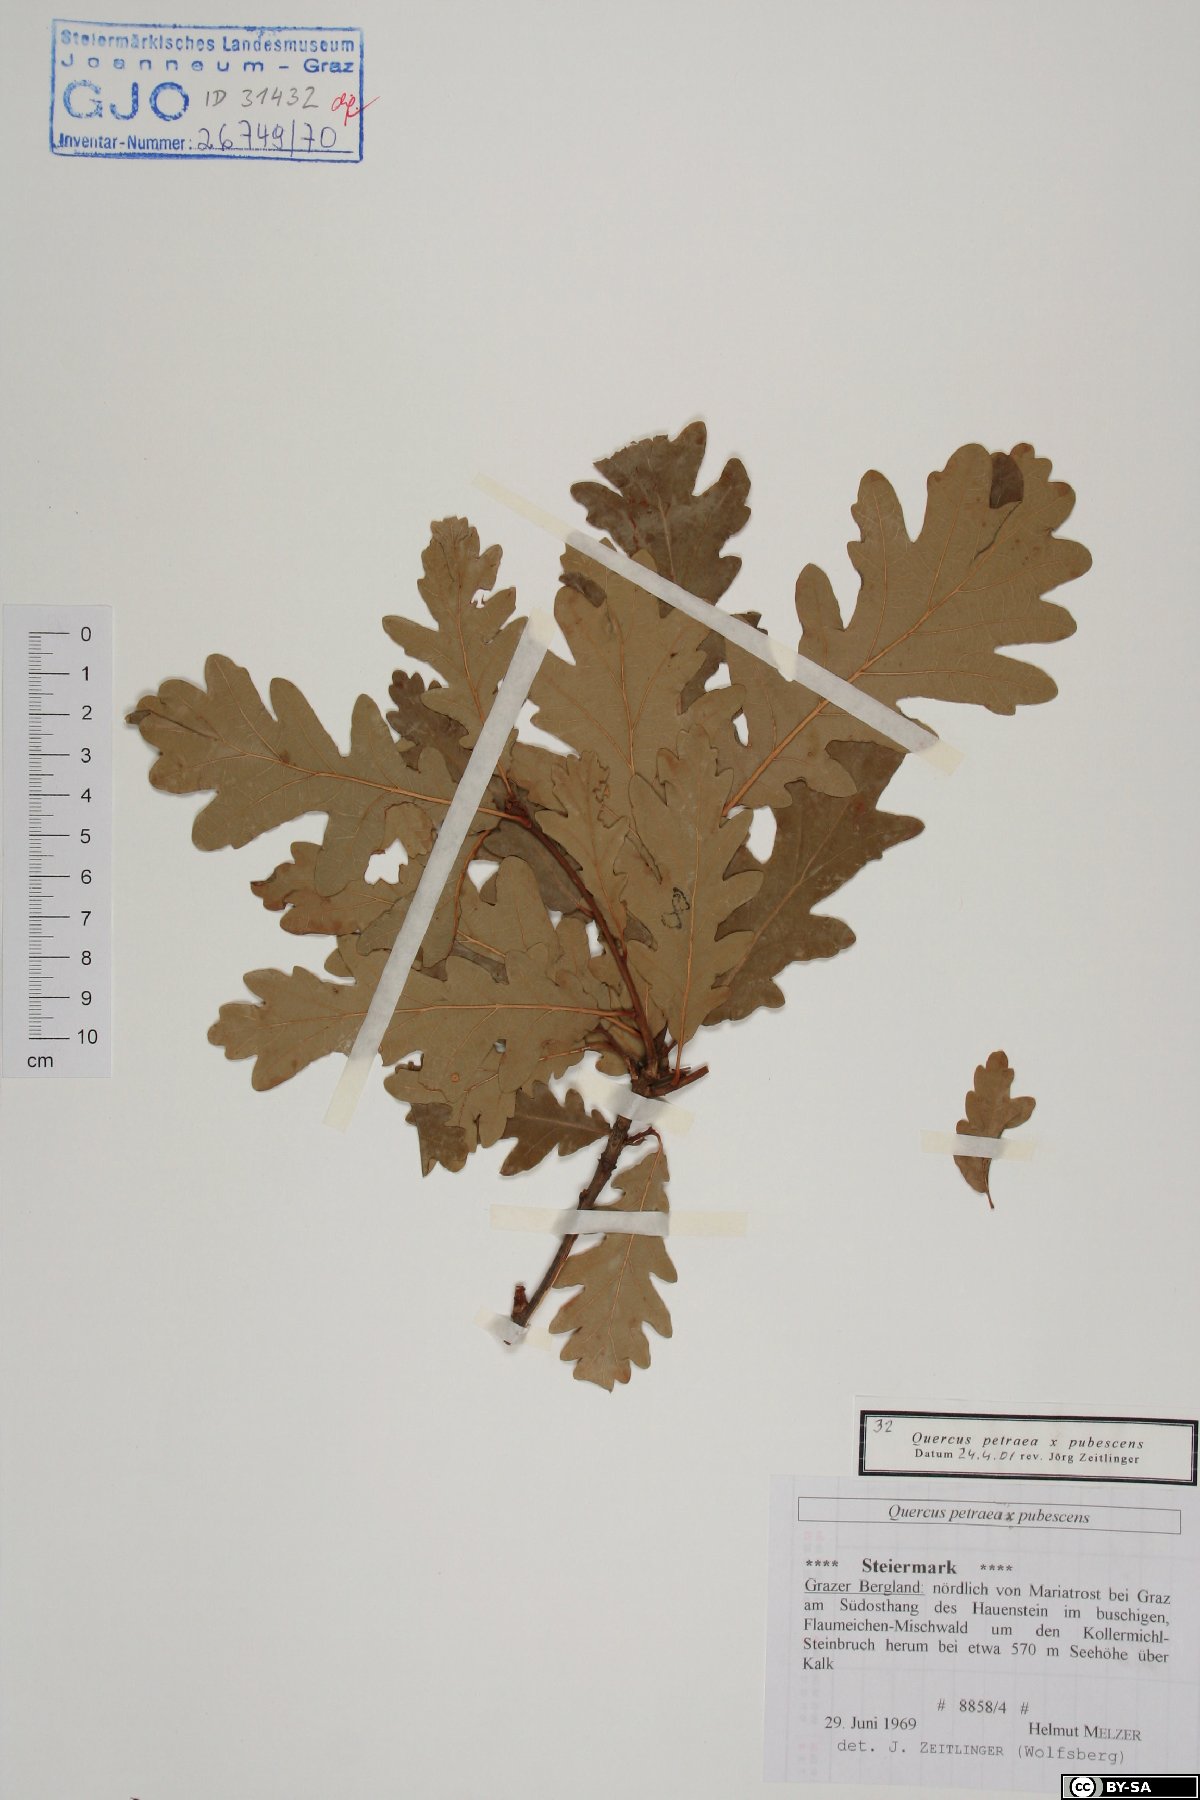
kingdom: Plantae
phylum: Tracheophyta
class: Magnoliopsida
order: Fagales
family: Fagaceae
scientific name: Fagaceae
